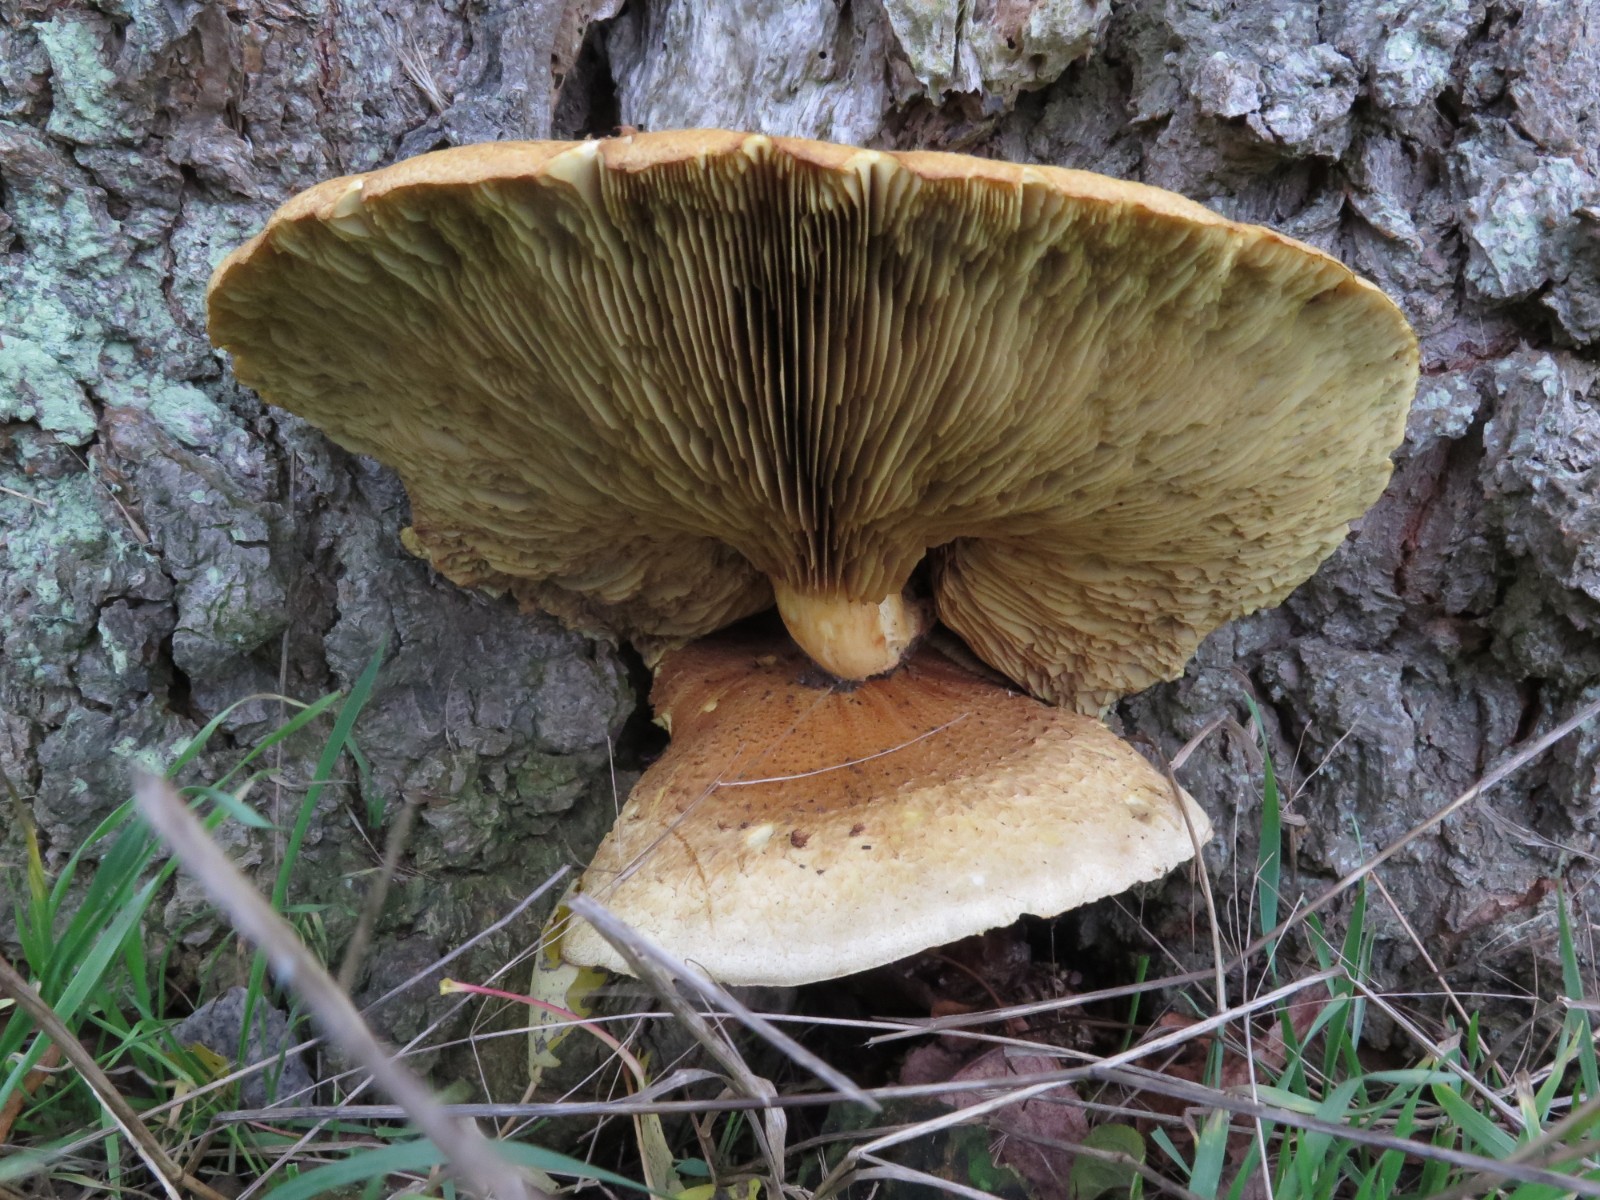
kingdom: Fungi
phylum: Basidiomycota
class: Agaricomycetes
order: Agaricales
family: Hymenogastraceae
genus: Gymnopilus
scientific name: Gymnopilus spectabilis
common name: fibret flammehat
